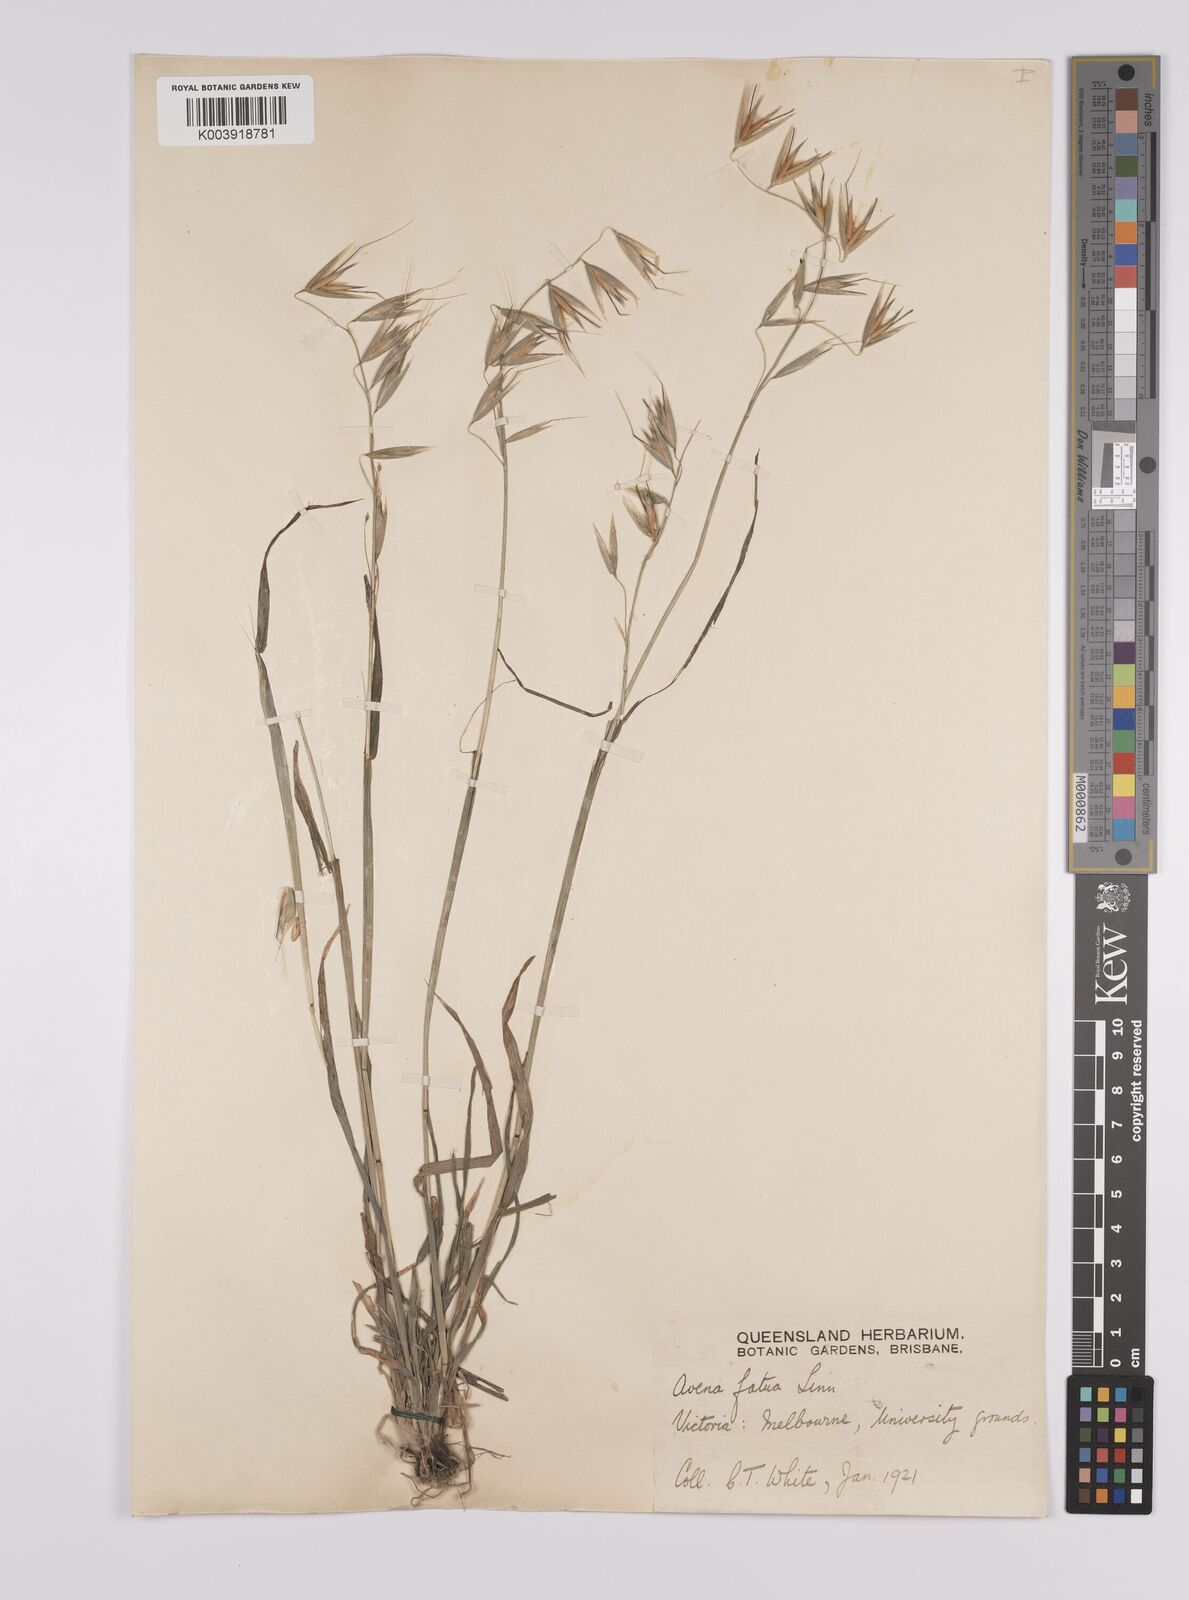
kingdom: Plantae
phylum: Tracheophyta
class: Liliopsida
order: Poales
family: Poaceae
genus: Avena
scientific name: Avena fatua
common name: Wild oat
